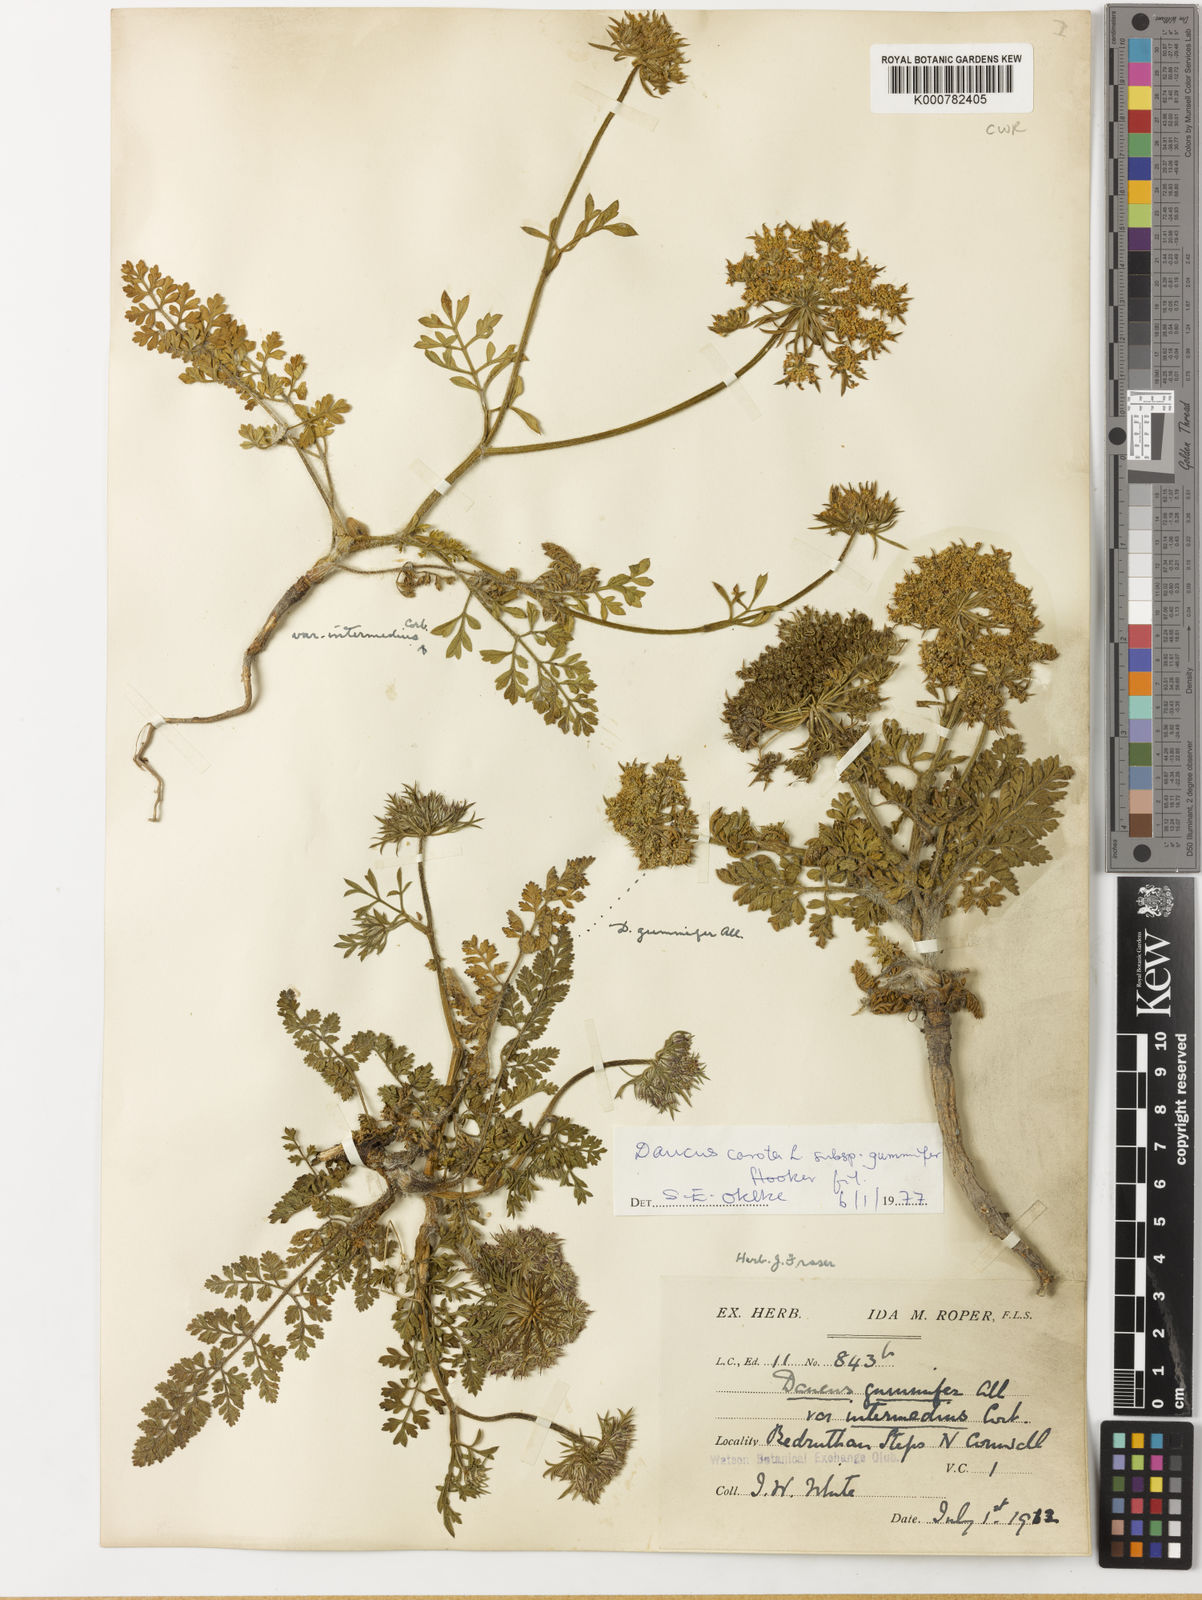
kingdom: Plantae
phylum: Tracheophyta
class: Magnoliopsida
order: Apiales
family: Apiaceae
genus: Daucus
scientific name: Daucus carota
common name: Wild carrot
